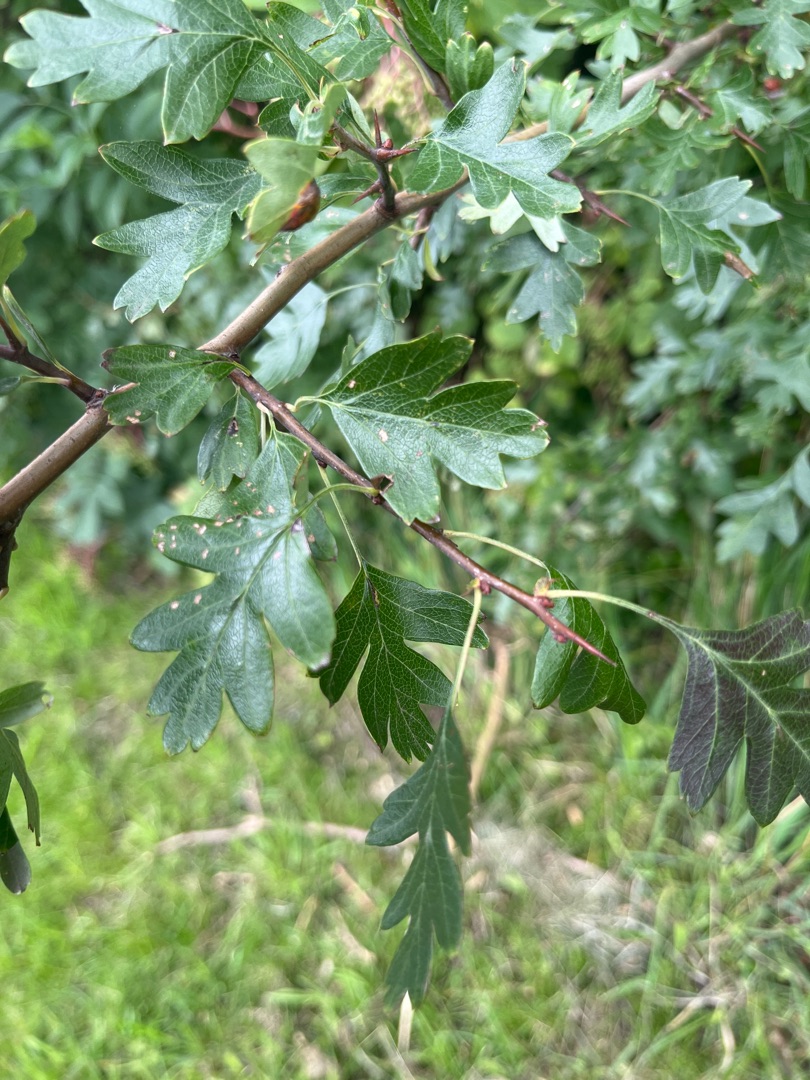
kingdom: Plantae
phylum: Tracheophyta
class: Magnoliopsida
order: Rosales
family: Rosaceae
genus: Crataegus
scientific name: Crataegus monogyna
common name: Engriflet hvidtjørn
